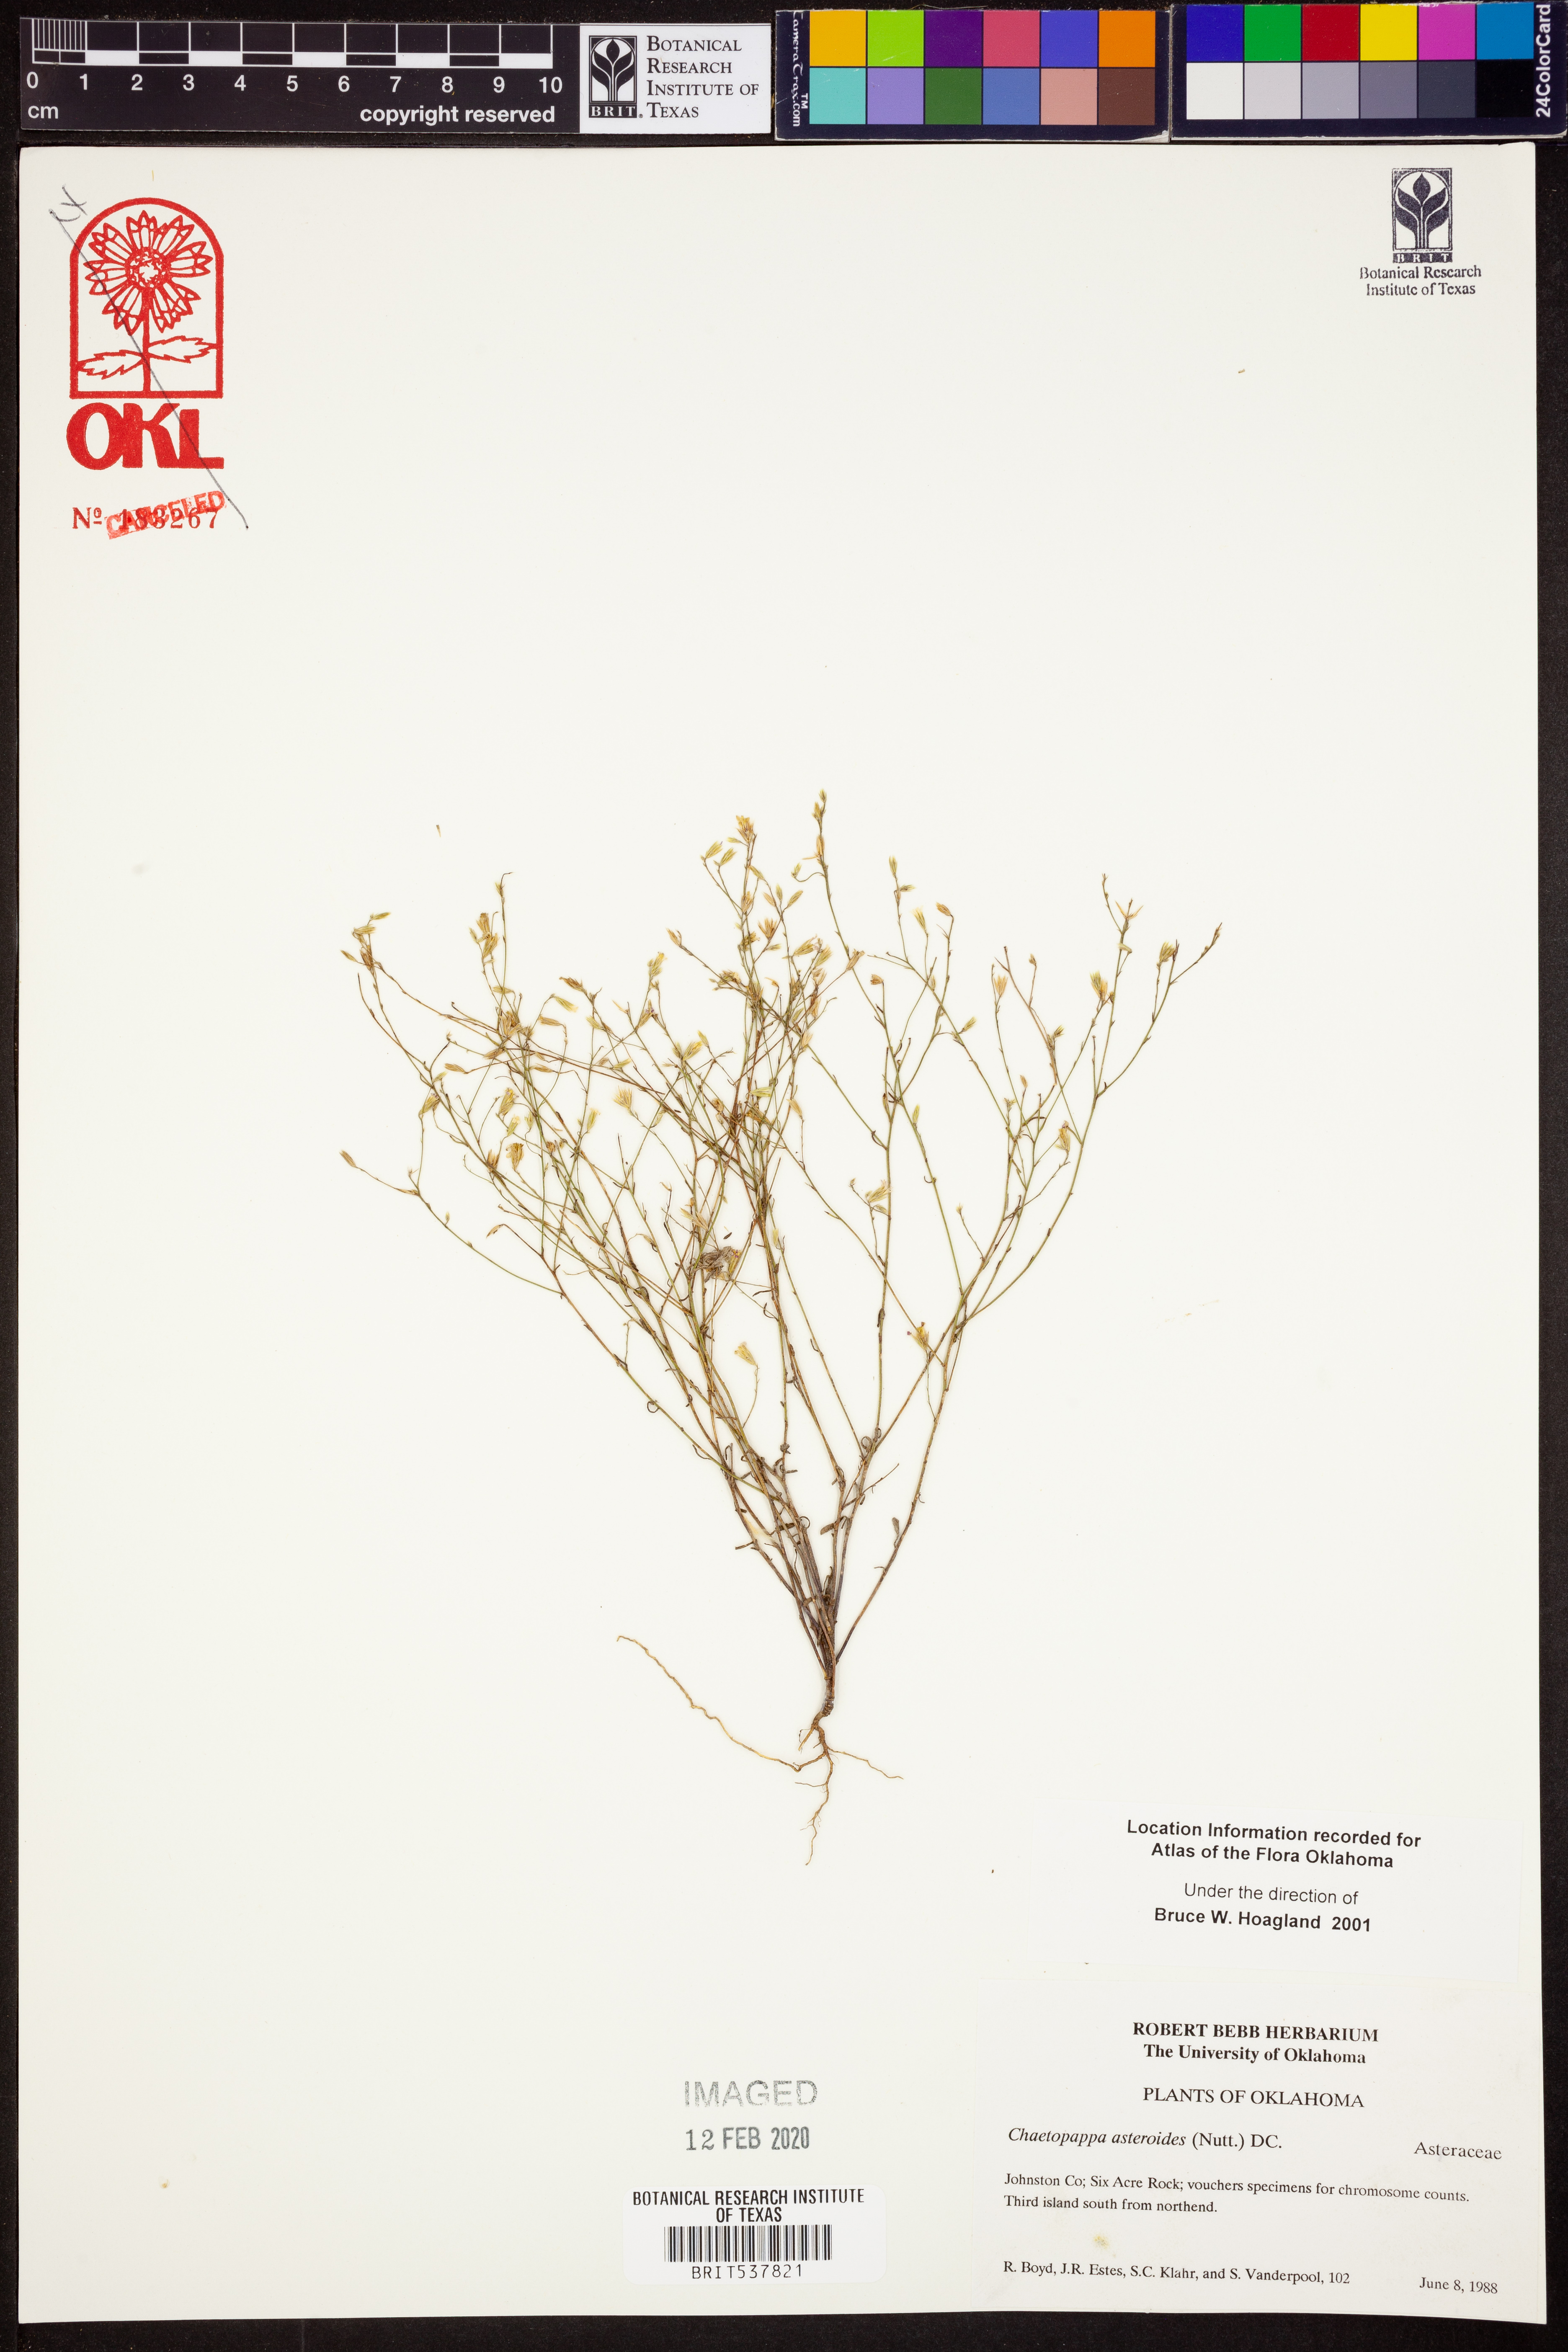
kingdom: Plantae
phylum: Tracheophyta
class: Magnoliopsida
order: Asterales
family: Asteraceae
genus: Chaetopappa
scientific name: Chaetopappa asteroides
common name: Tiny lazy daisy
